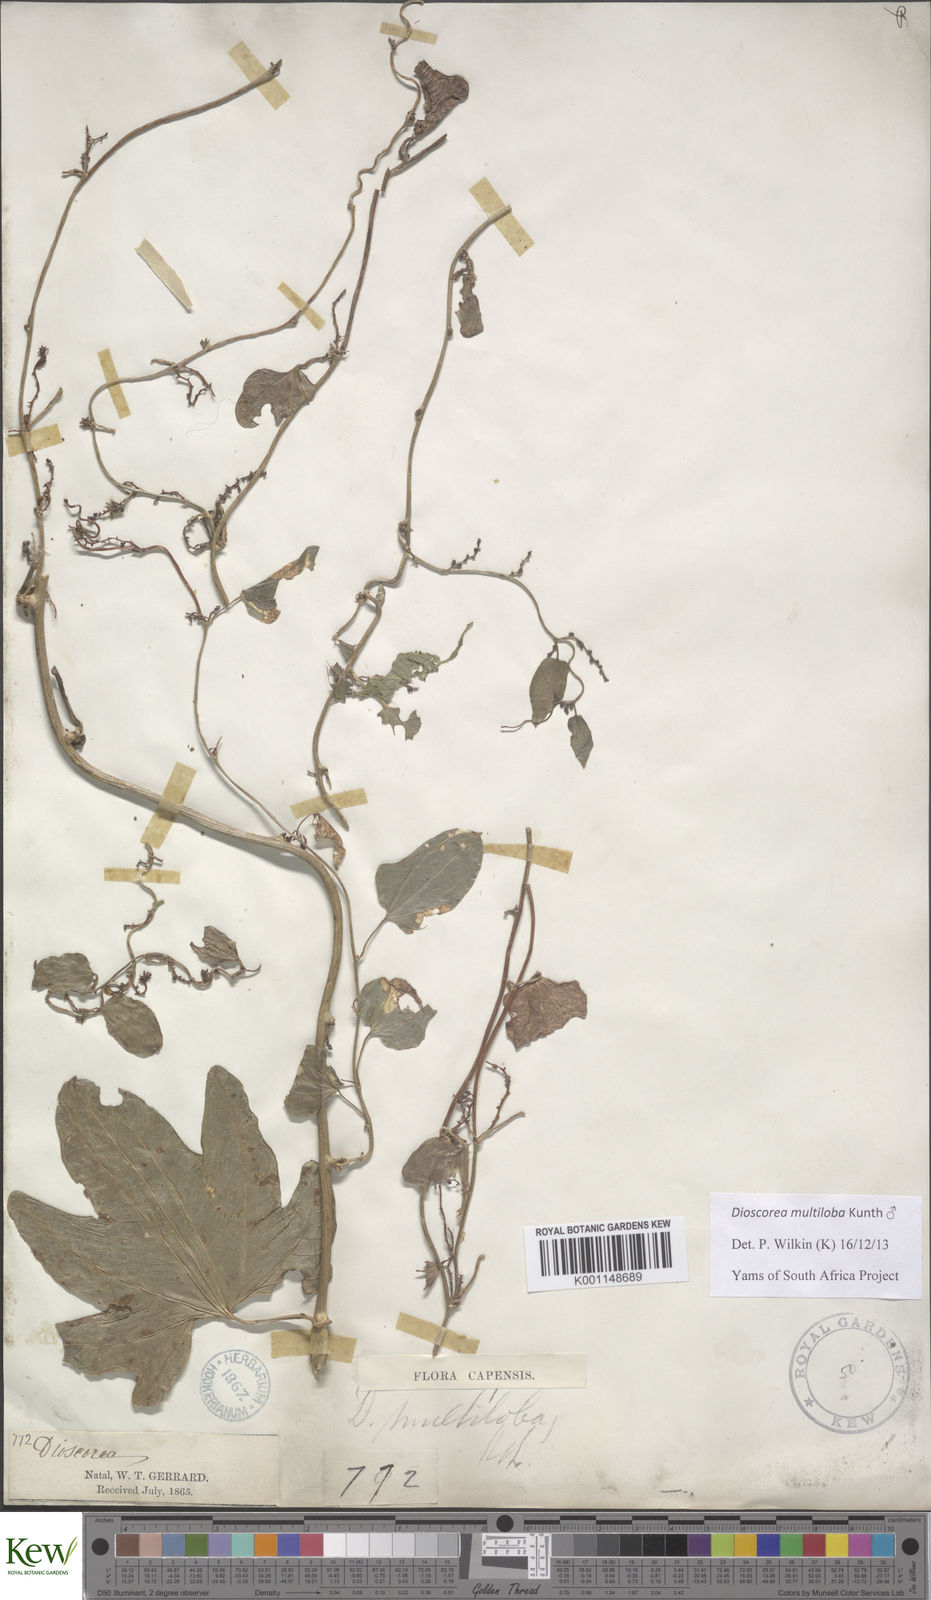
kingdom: Plantae
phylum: Tracheophyta
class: Liliopsida
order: Dioscoreales
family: Dioscoreaceae
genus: Dioscorea
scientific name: Dioscorea multiloba
